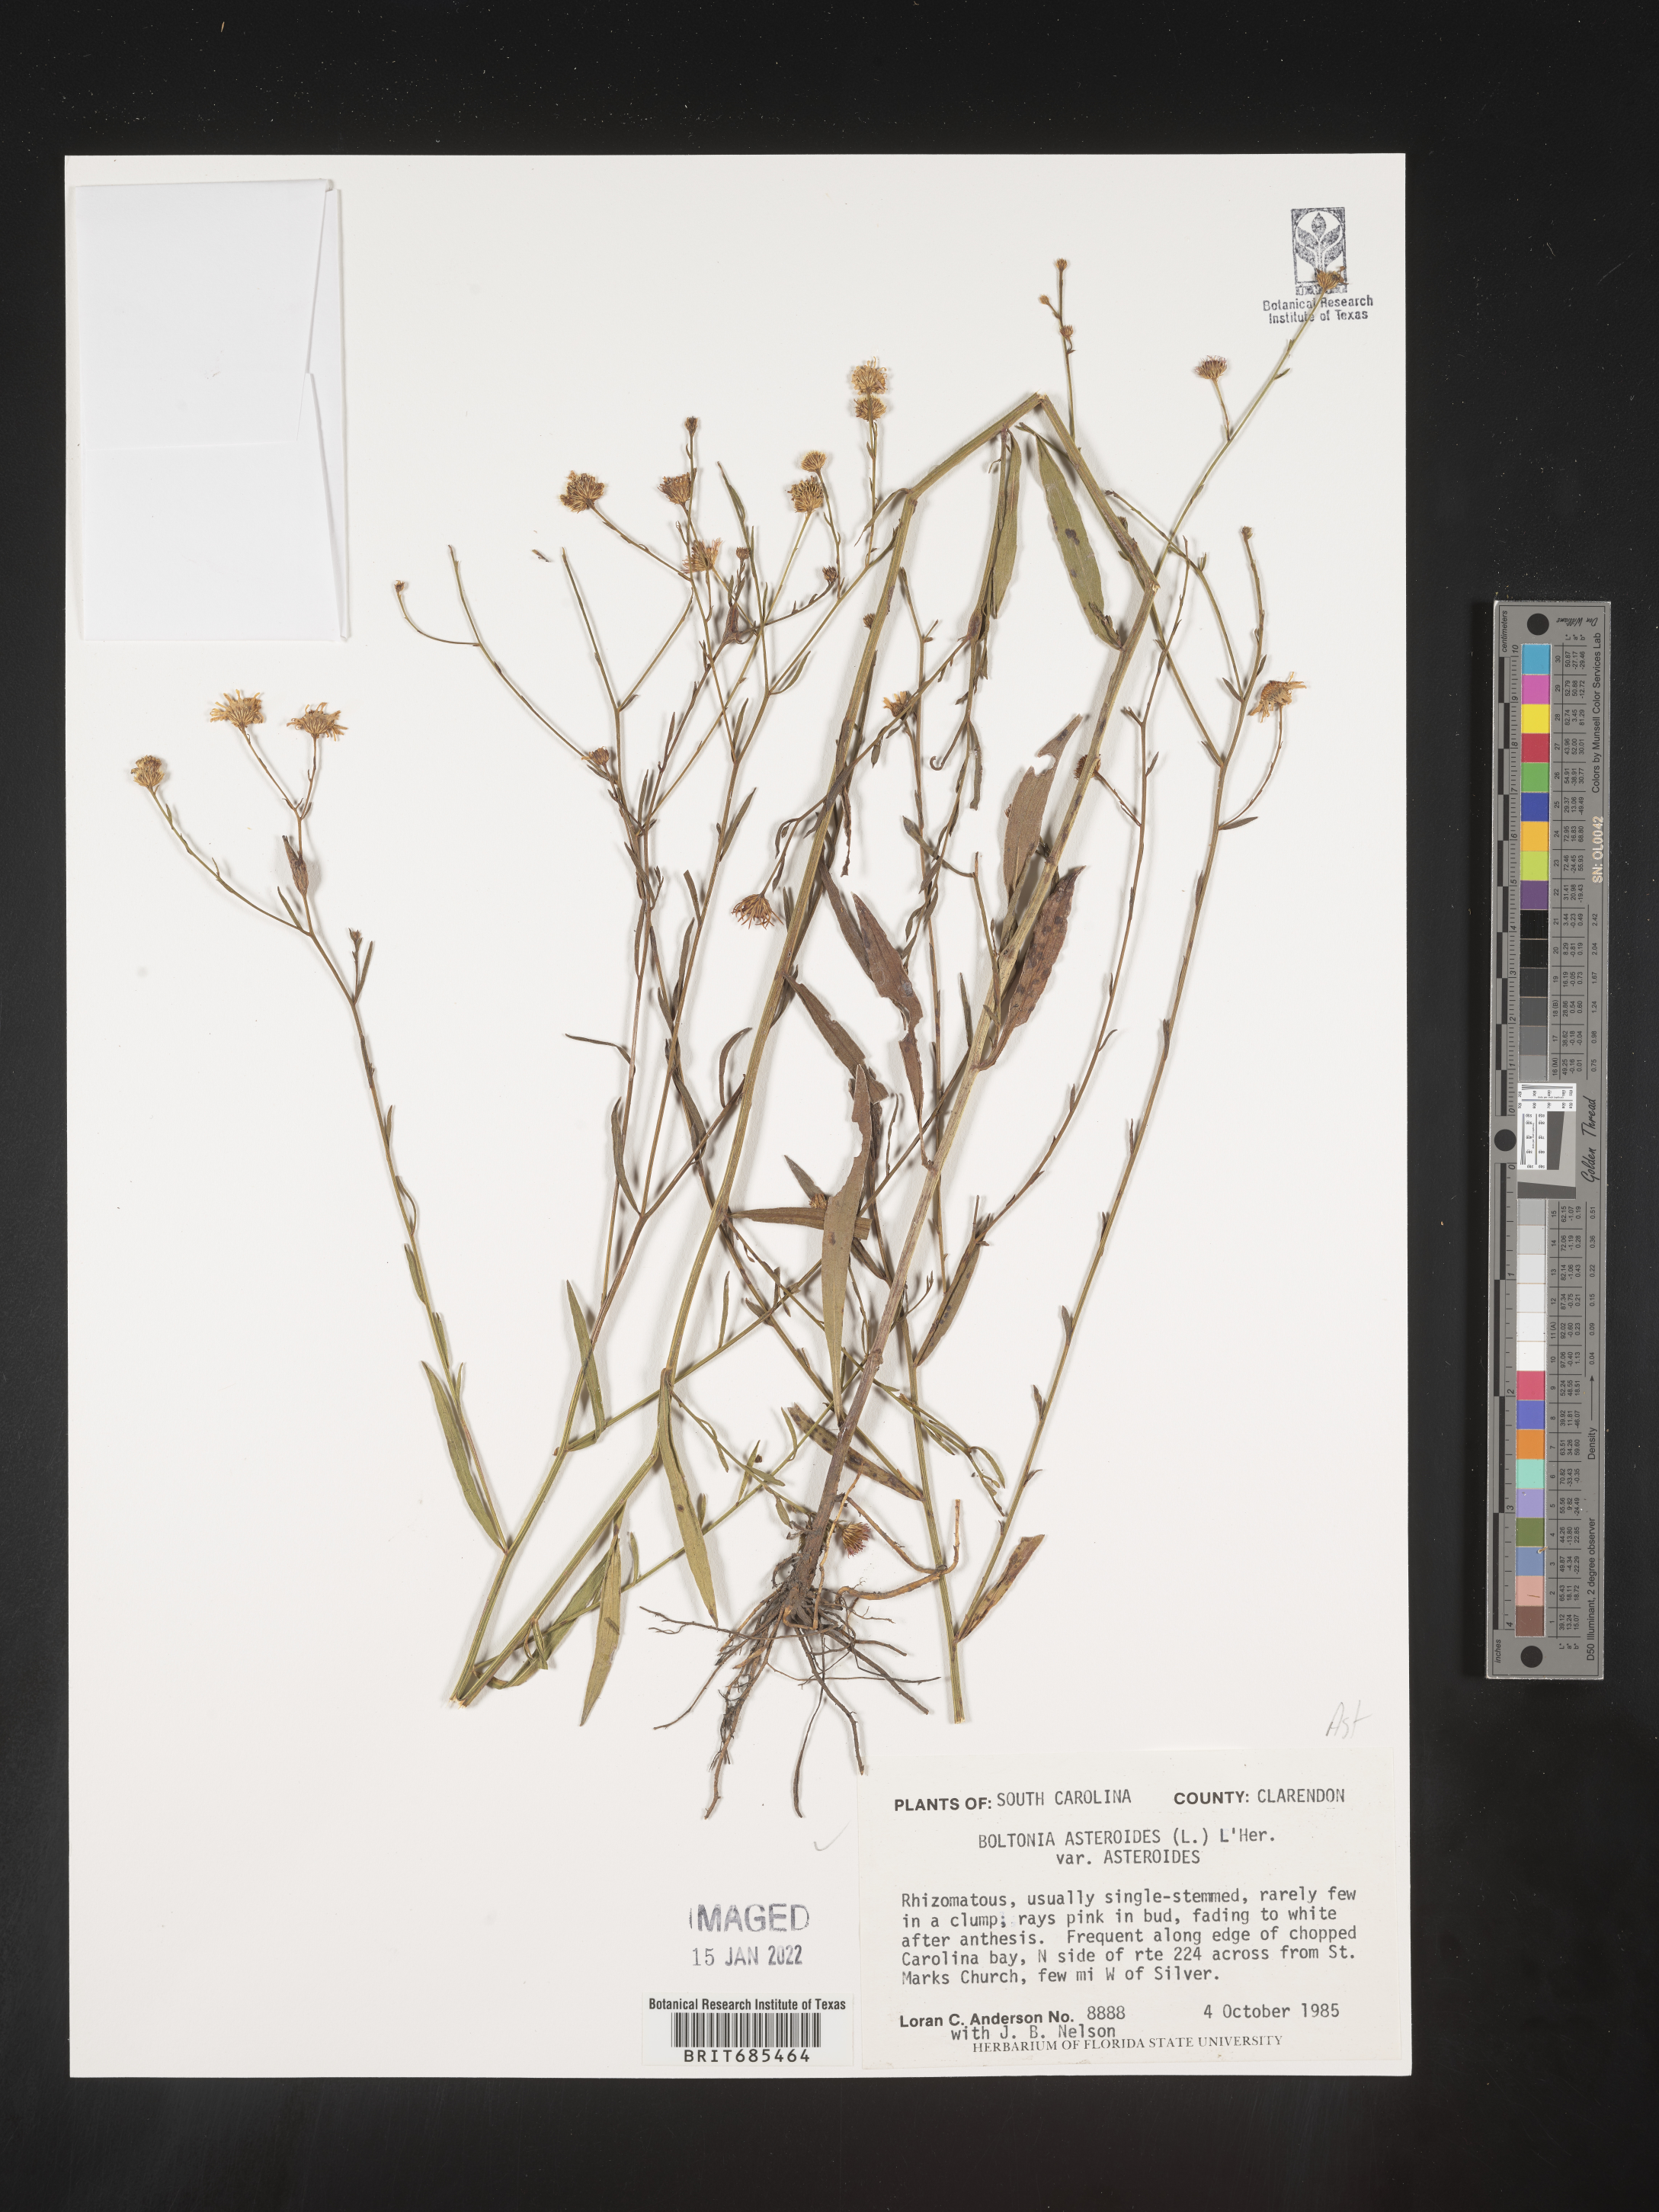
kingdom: Plantae
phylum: Tracheophyta
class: Magnoliopsida
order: Asterales
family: Asteraceae
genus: Boltonia
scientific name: Boltonia asteroides
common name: False chamomile
